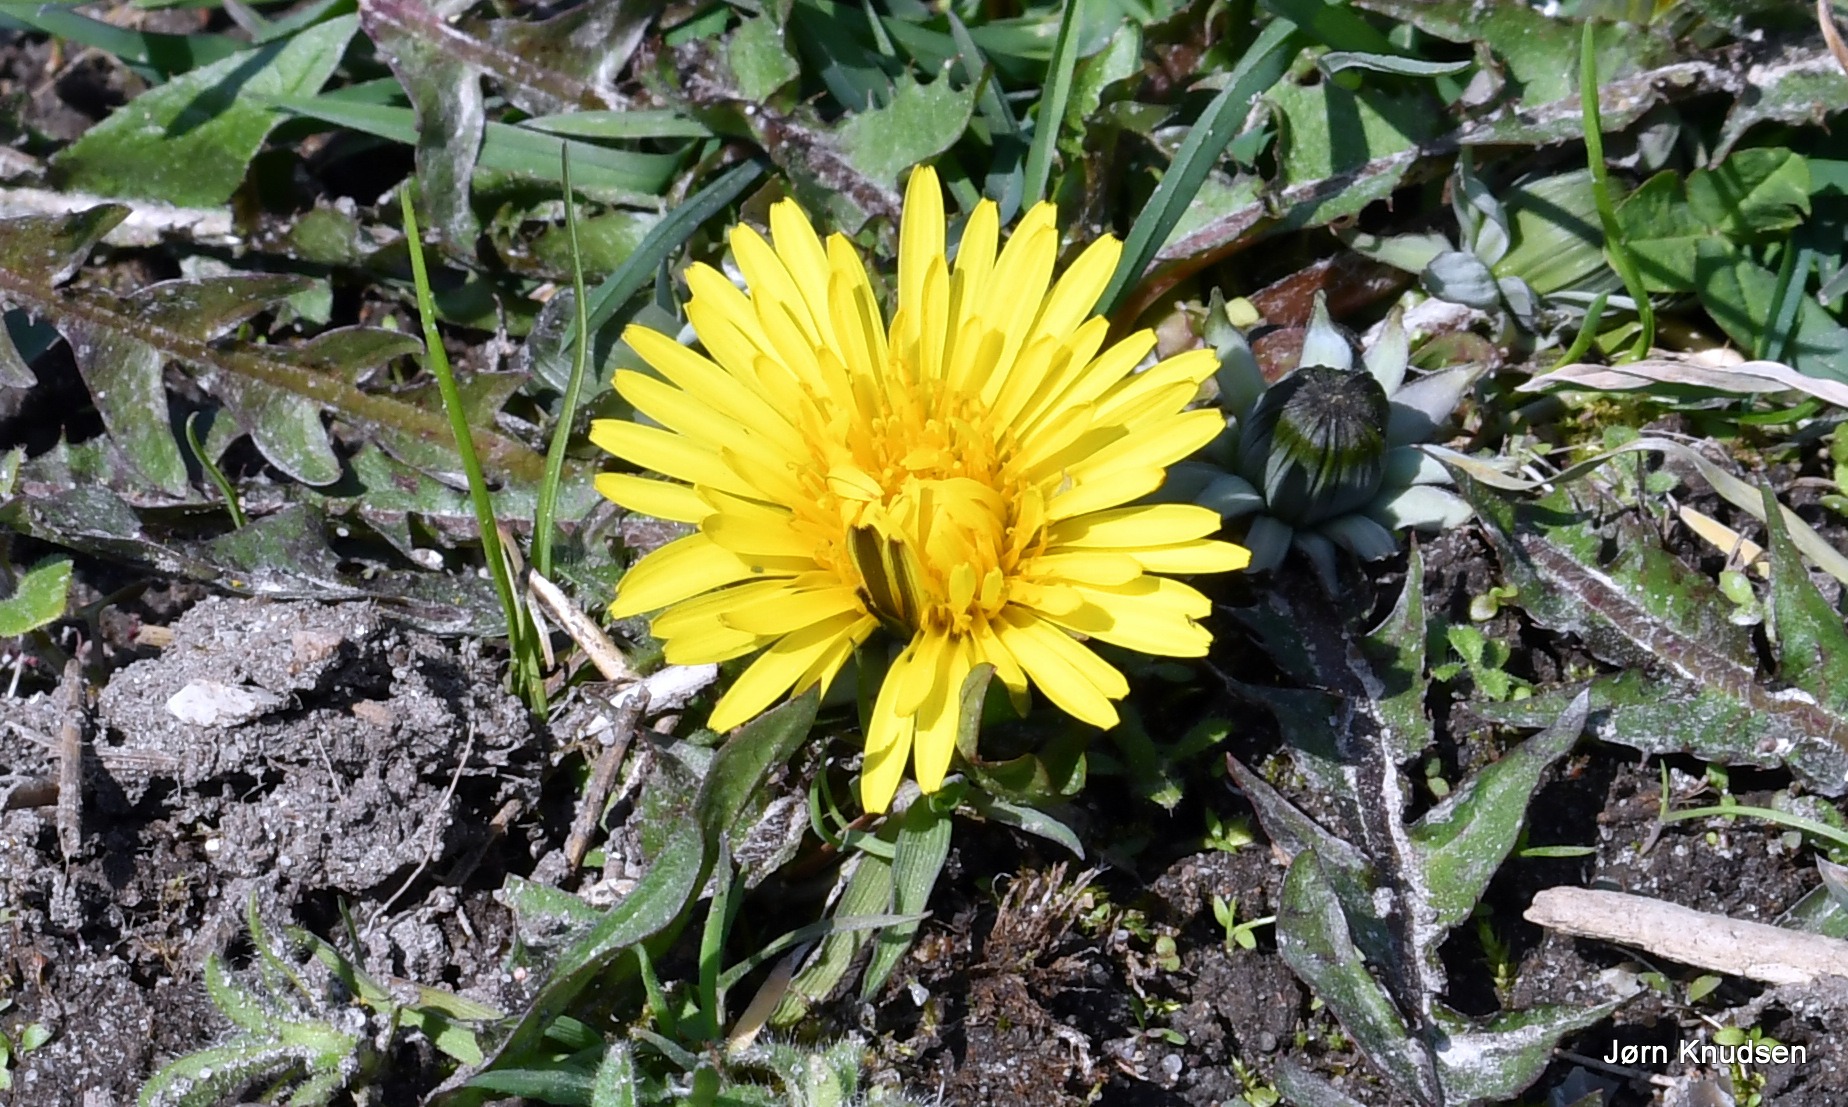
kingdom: Plantae
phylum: Tracheophyta
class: Magnoliopsida
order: Asterales
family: Asteraceae
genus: Taraxacum
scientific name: Taraxacum
